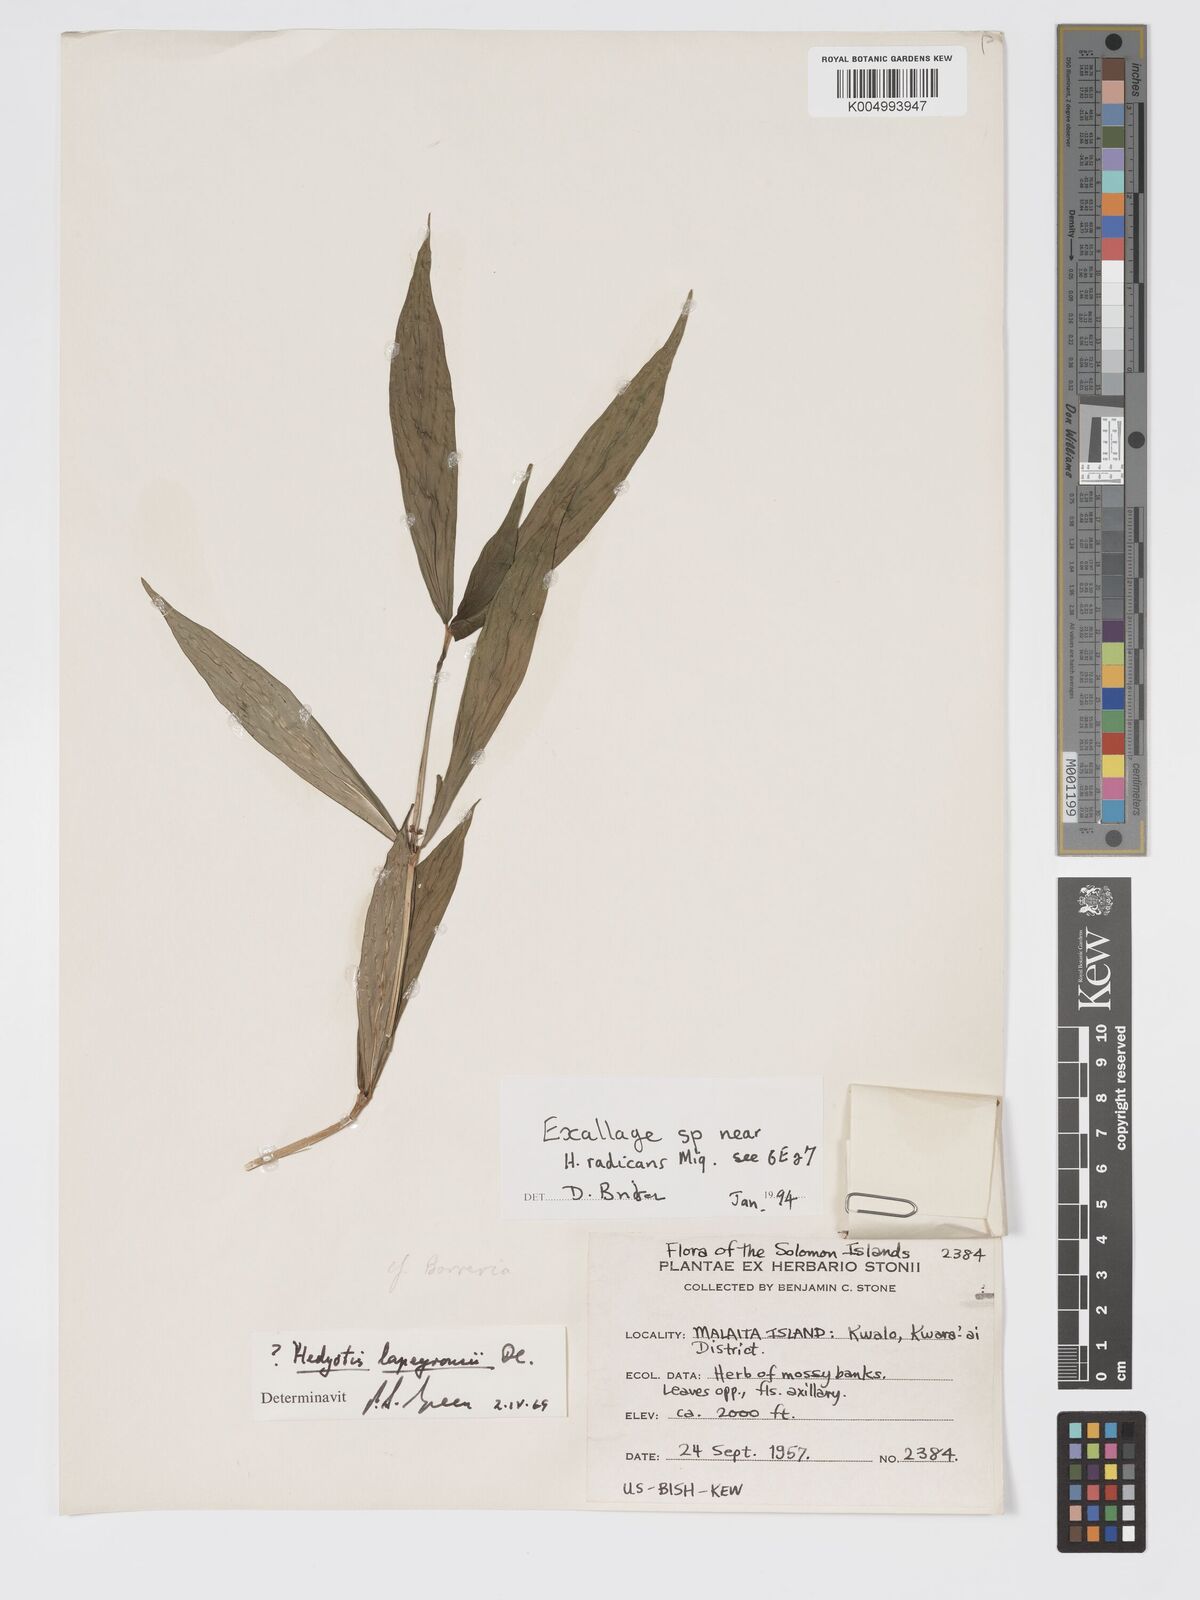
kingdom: Plantae
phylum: Tracheophyta
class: Magnoliopsida
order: Gentianales
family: Rubiaceae
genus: Oldenlandia
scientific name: Oldenlandia
